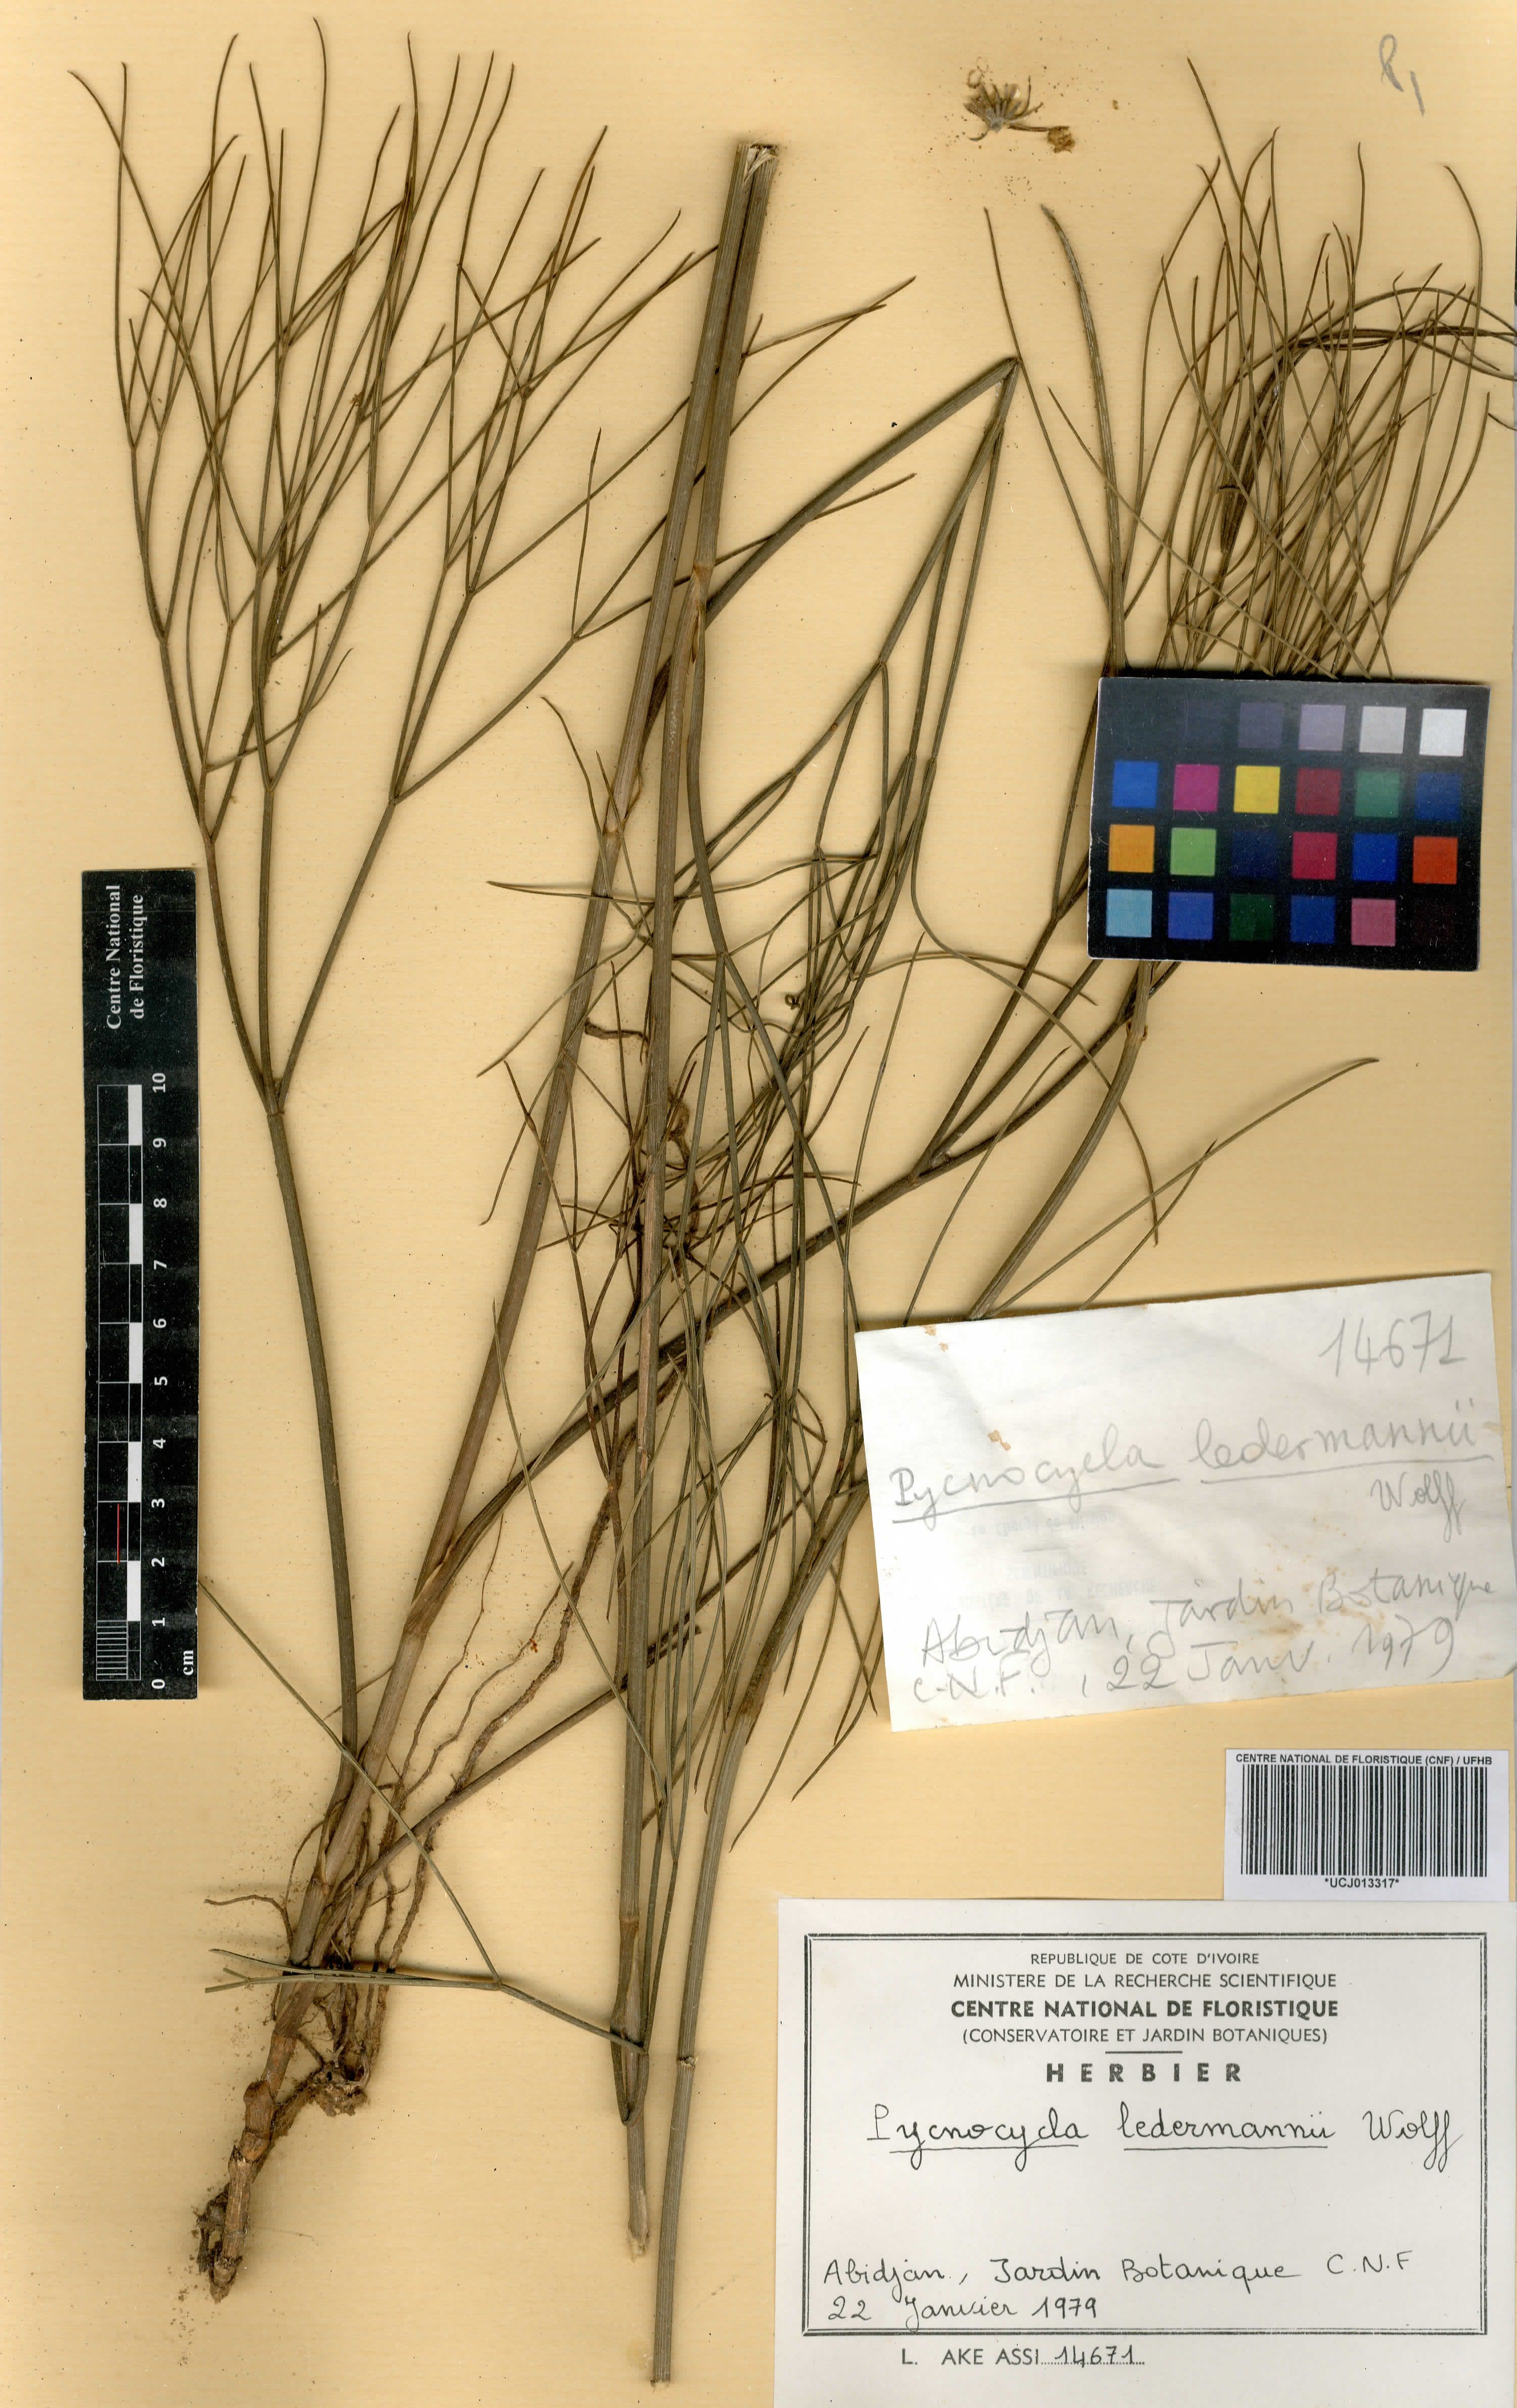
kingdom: Plantae
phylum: Tracheophyta
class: Magnoliopsida
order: Apiales
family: Apiaceae
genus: Pycnocycla
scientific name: Pycnocycla ledermannii
